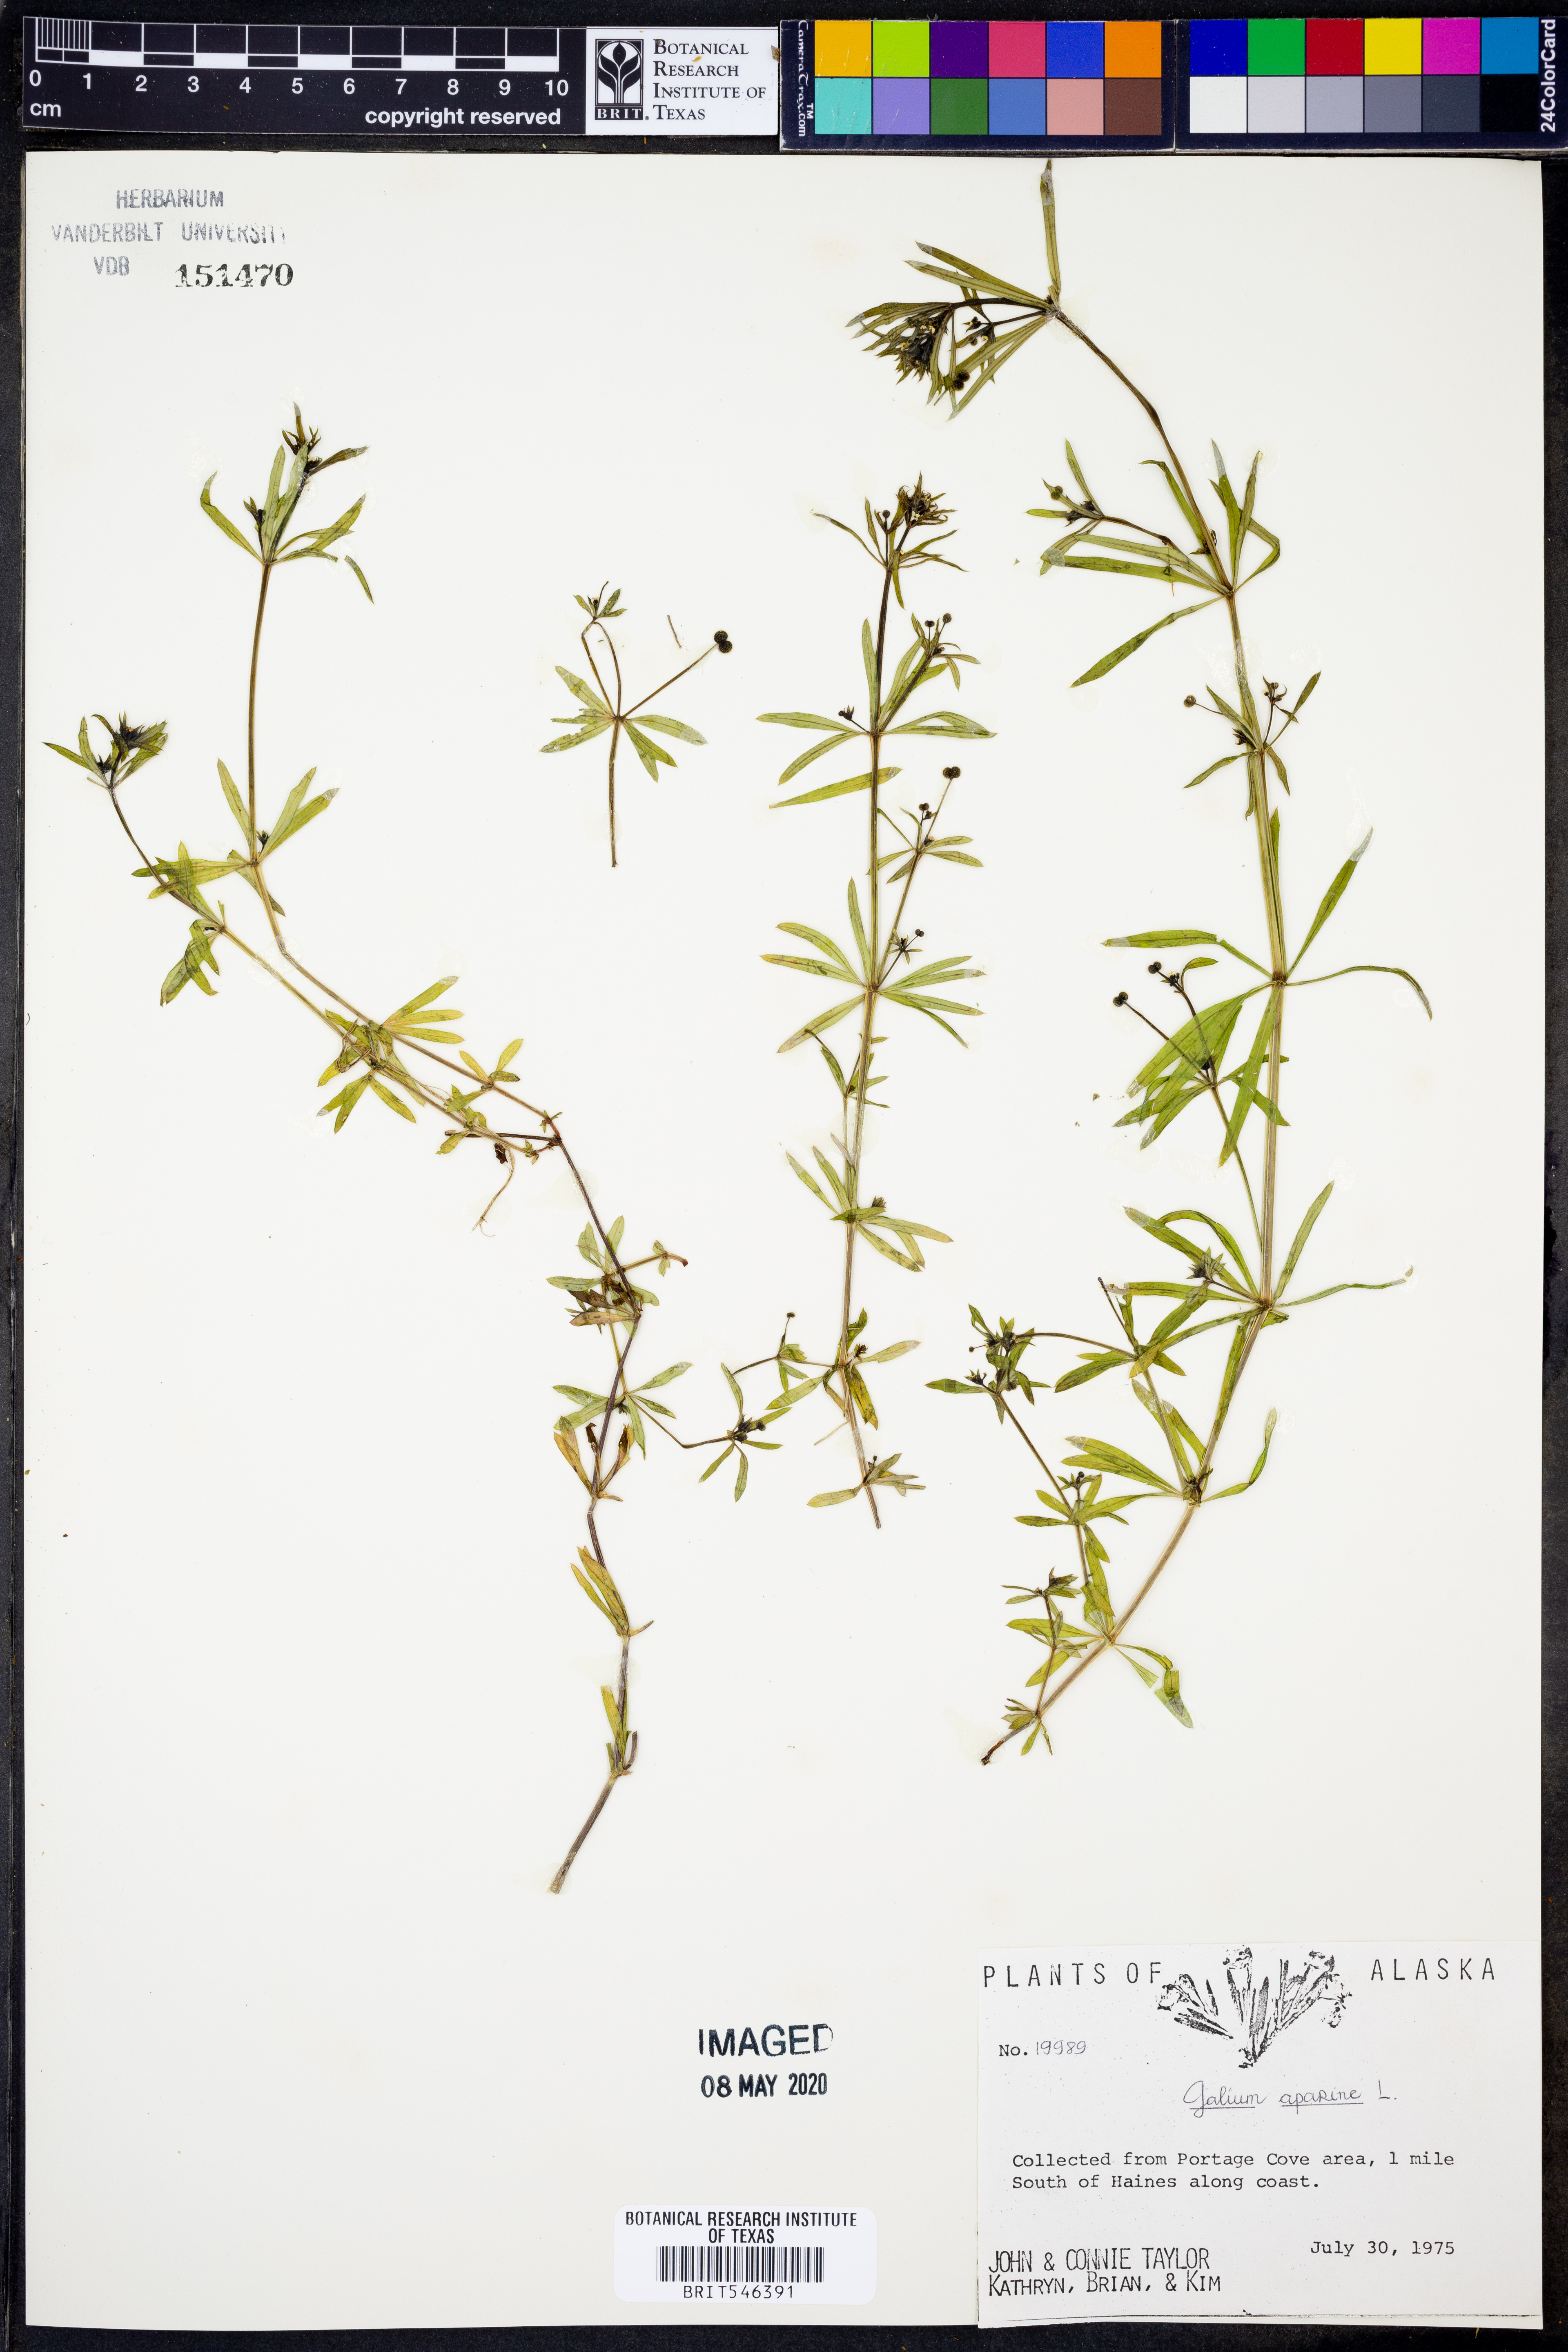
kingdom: Plantae
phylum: Tracheophyta
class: Magnoliopsida
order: Gentianales
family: Rubiaceae
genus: Galium
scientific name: Galium aparine
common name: Cleavers
